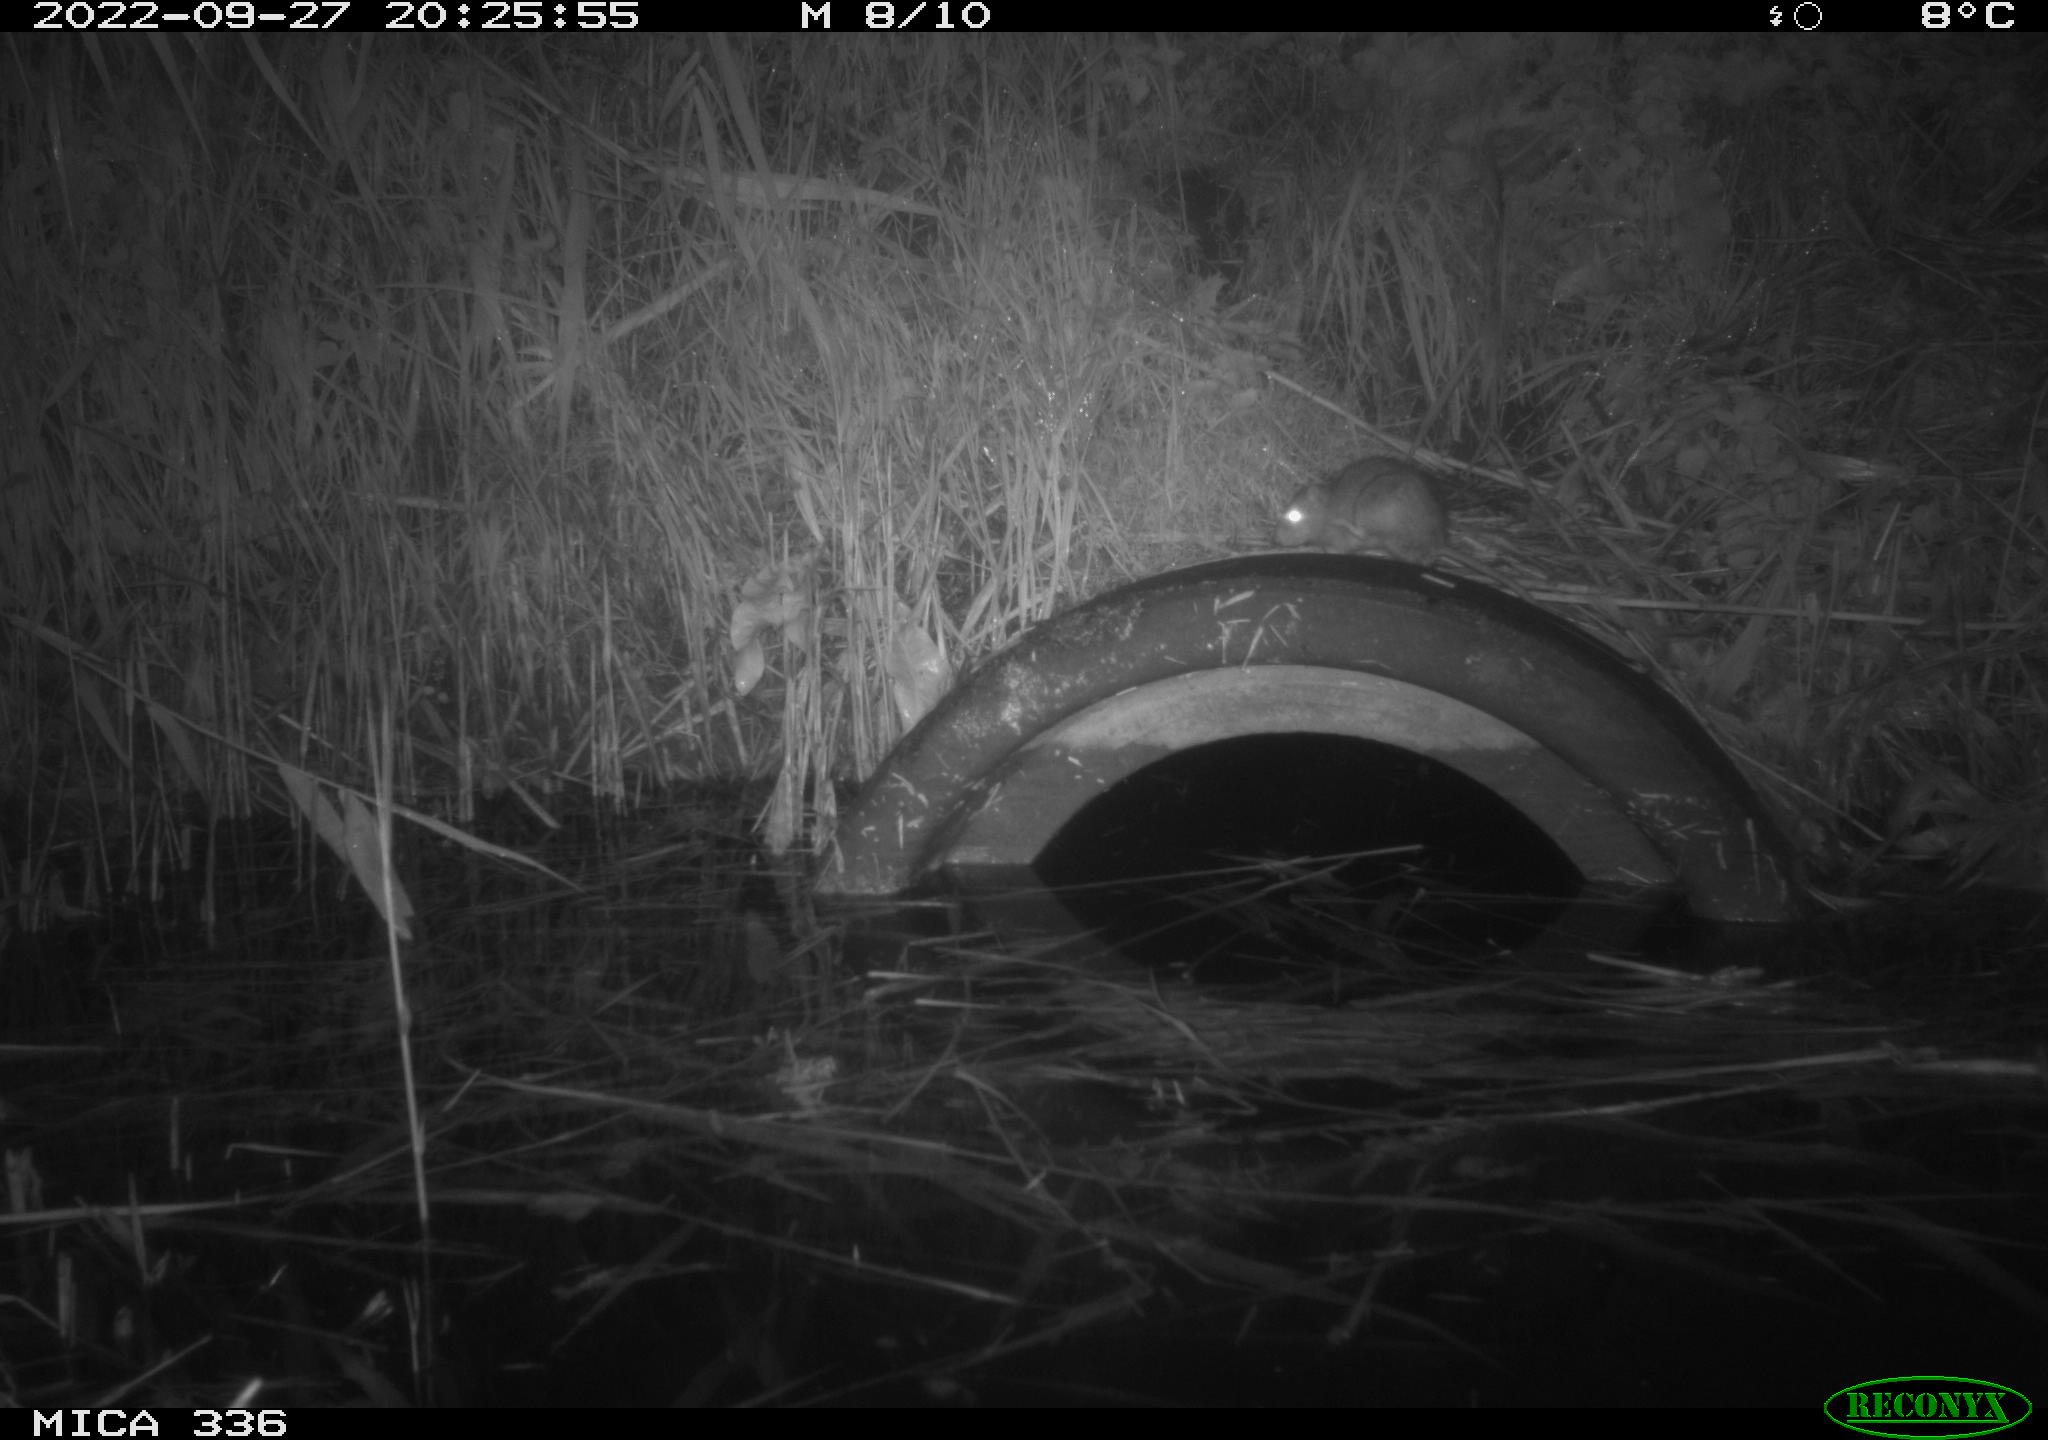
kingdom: Animalia
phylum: Chordata
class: Mammalia
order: Rodentia
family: Muridae
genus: Rattus
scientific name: Rattus norvegicus
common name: Brown rat
